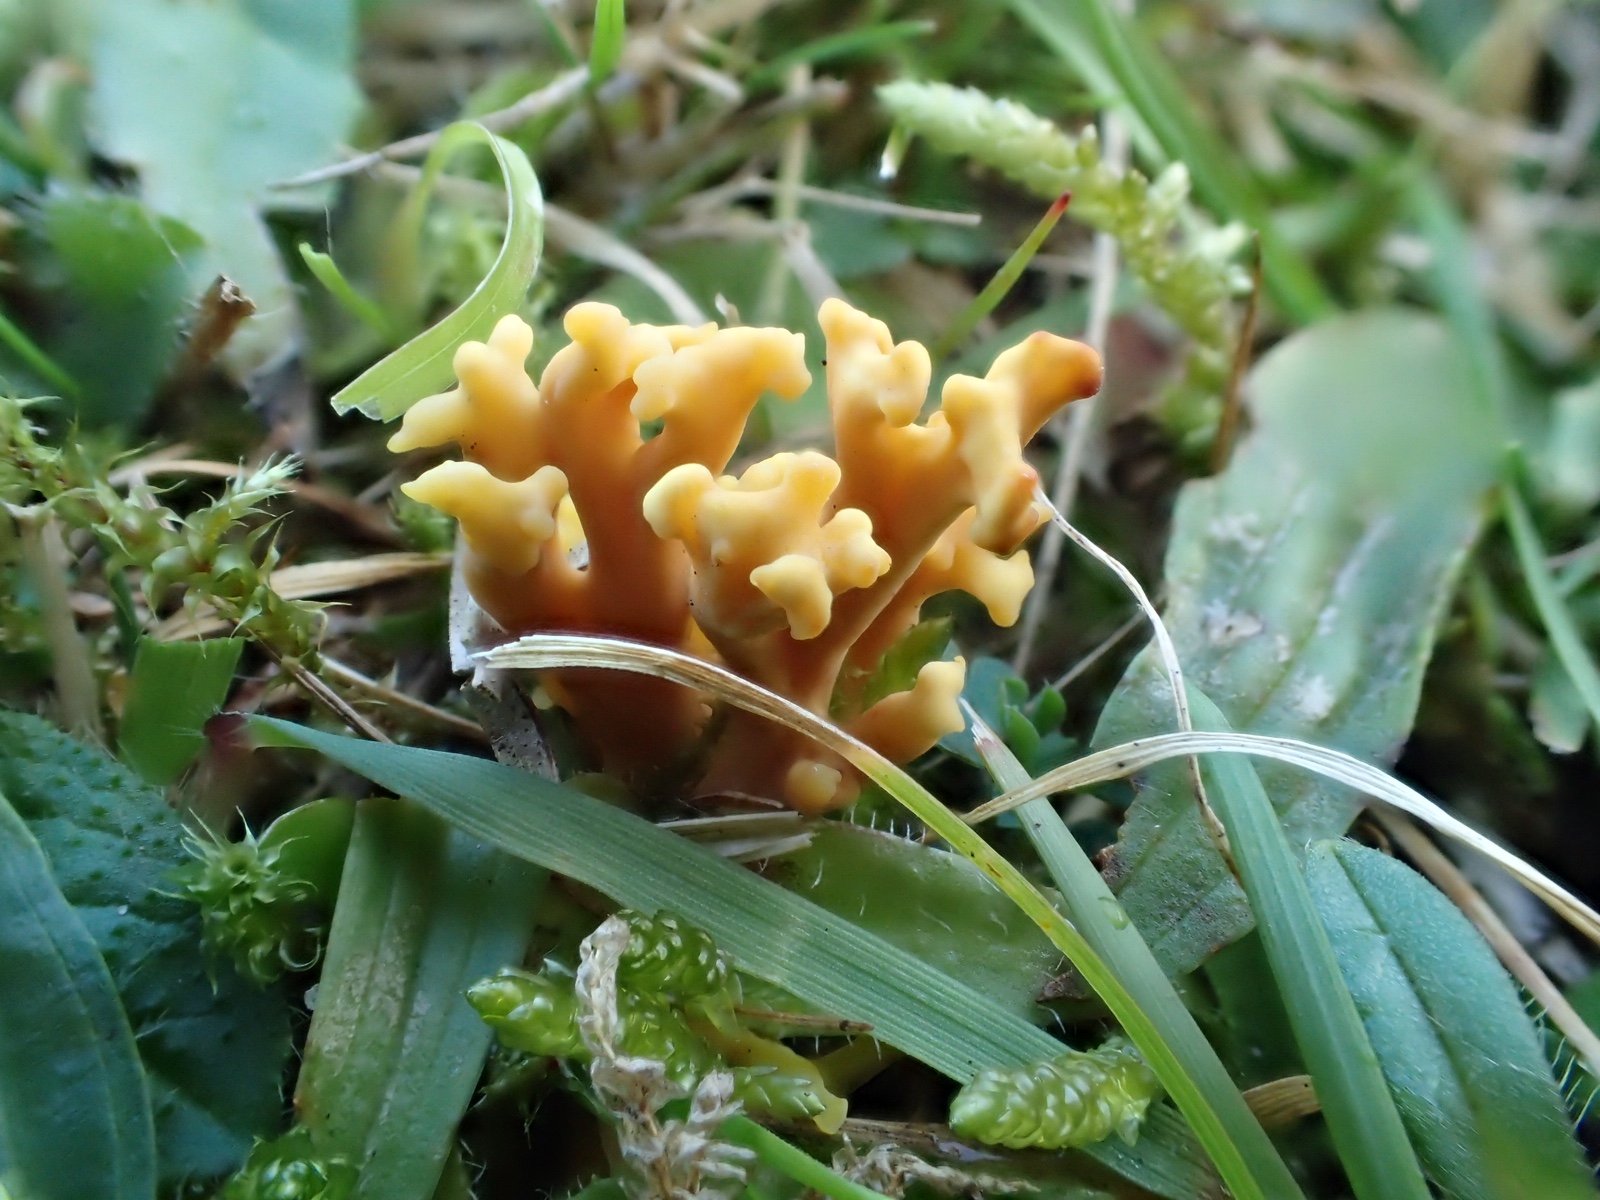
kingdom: Fungi
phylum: Basidiomycota
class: Agaricomycetes
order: Agaricales
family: Clavariaceae
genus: Clavulinopsis
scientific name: Clavulinopsis corniculata
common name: eng-køllesvamp
